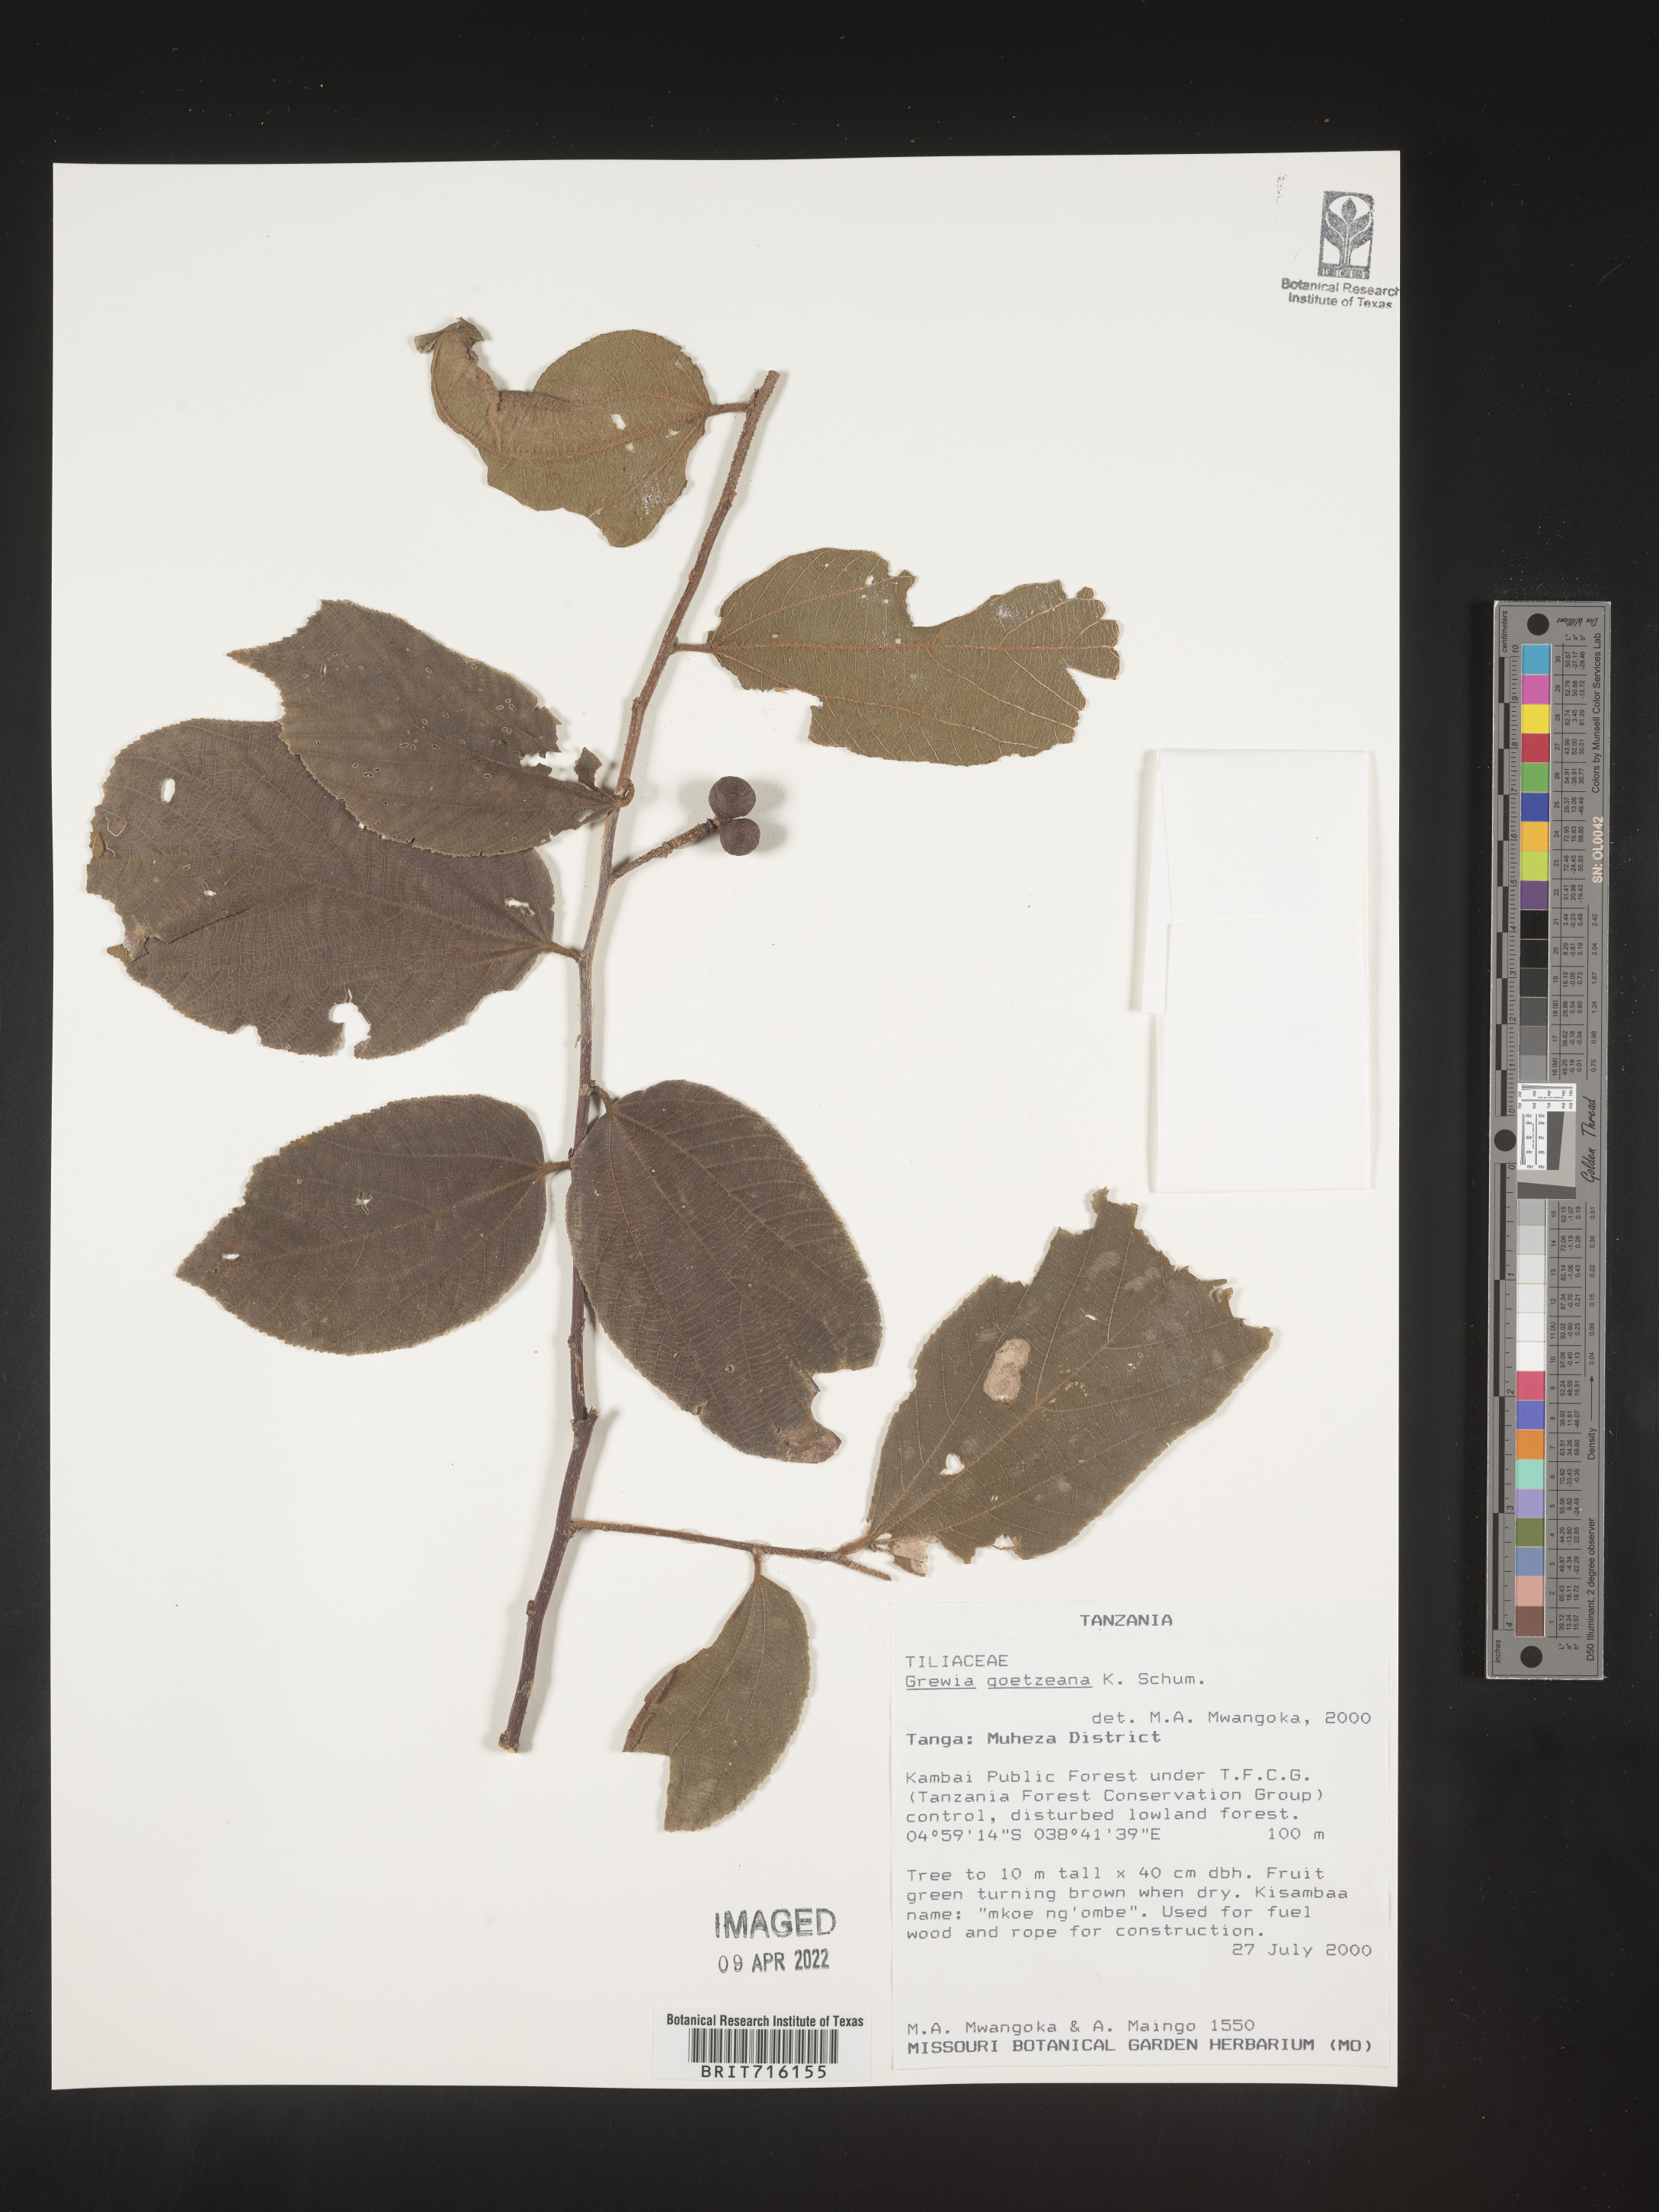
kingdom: Plantae
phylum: Tracheophyta
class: Magnoliopsida
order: Malvales
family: Malvaceae
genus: Grewia
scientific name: Grewia
